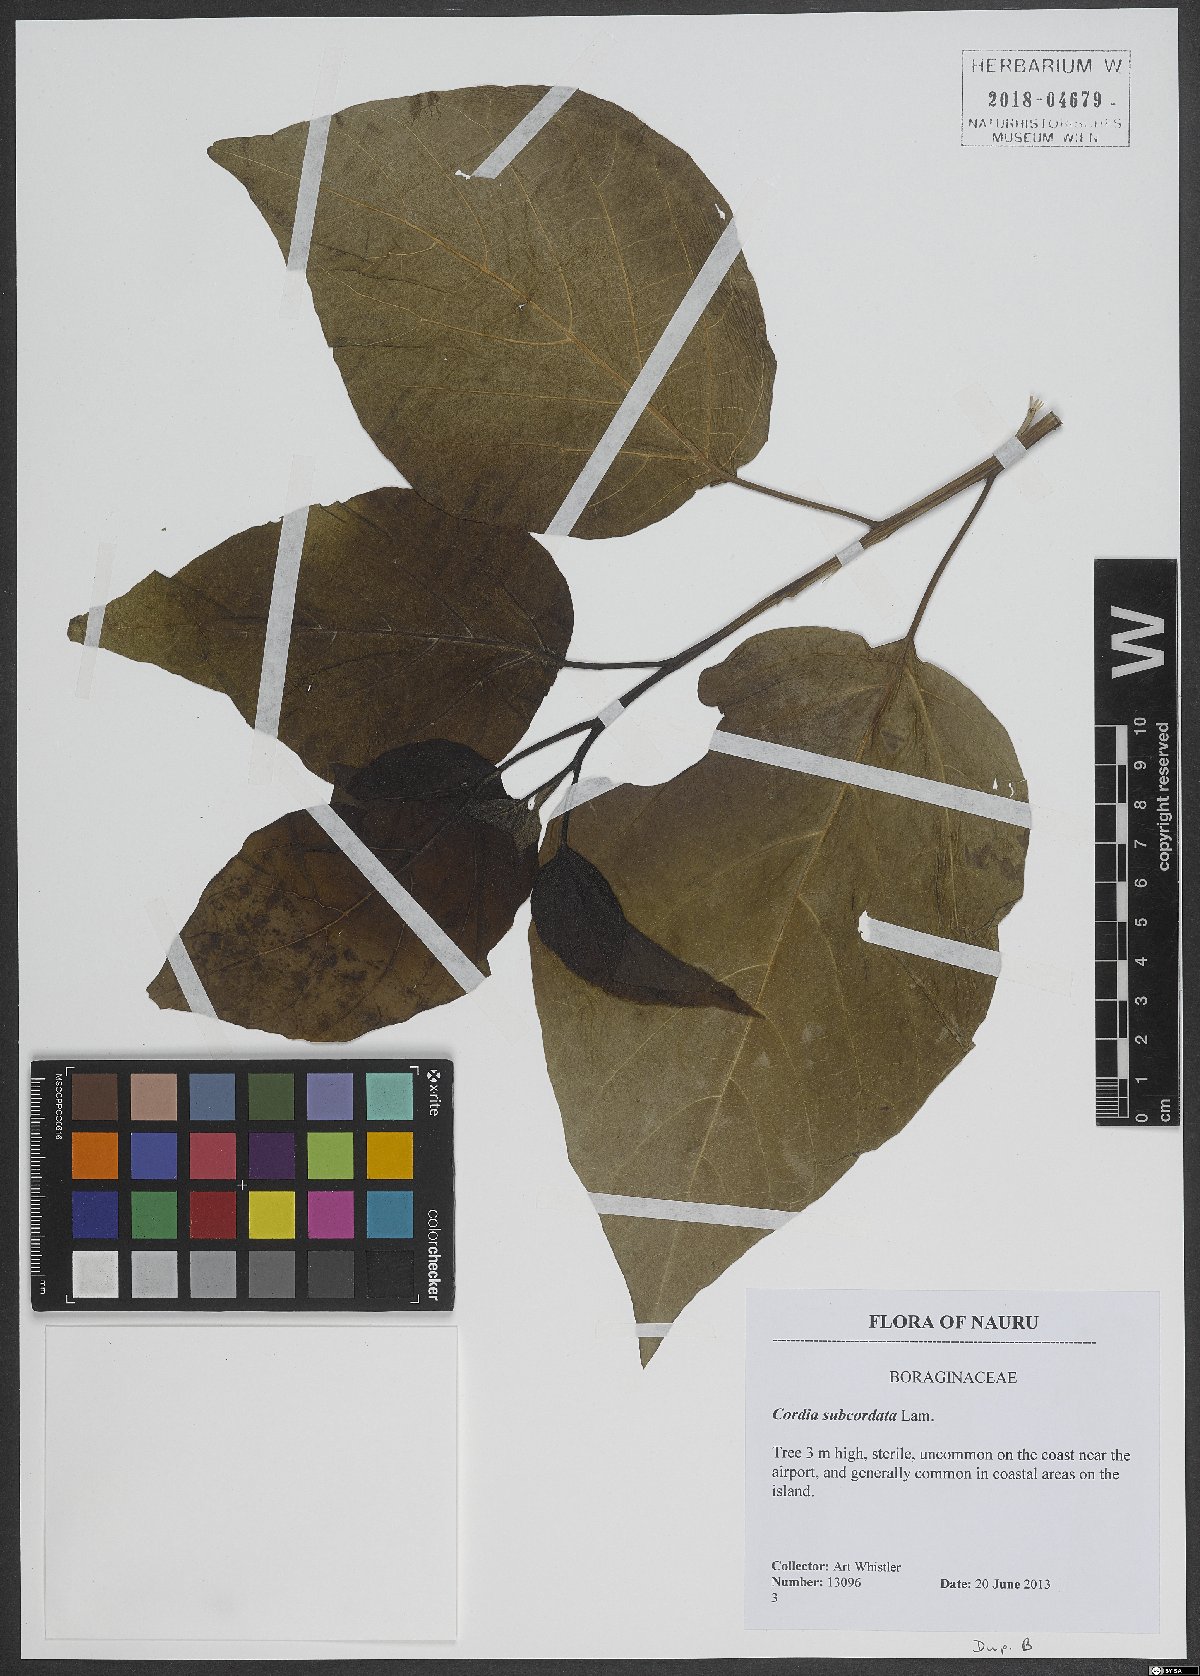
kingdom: Plantae
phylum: Tracheophyta
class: Magnoliopsida
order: Boraginales
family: Cordiaceae
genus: Cordia
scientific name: Cordia subcordata
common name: Mareer
